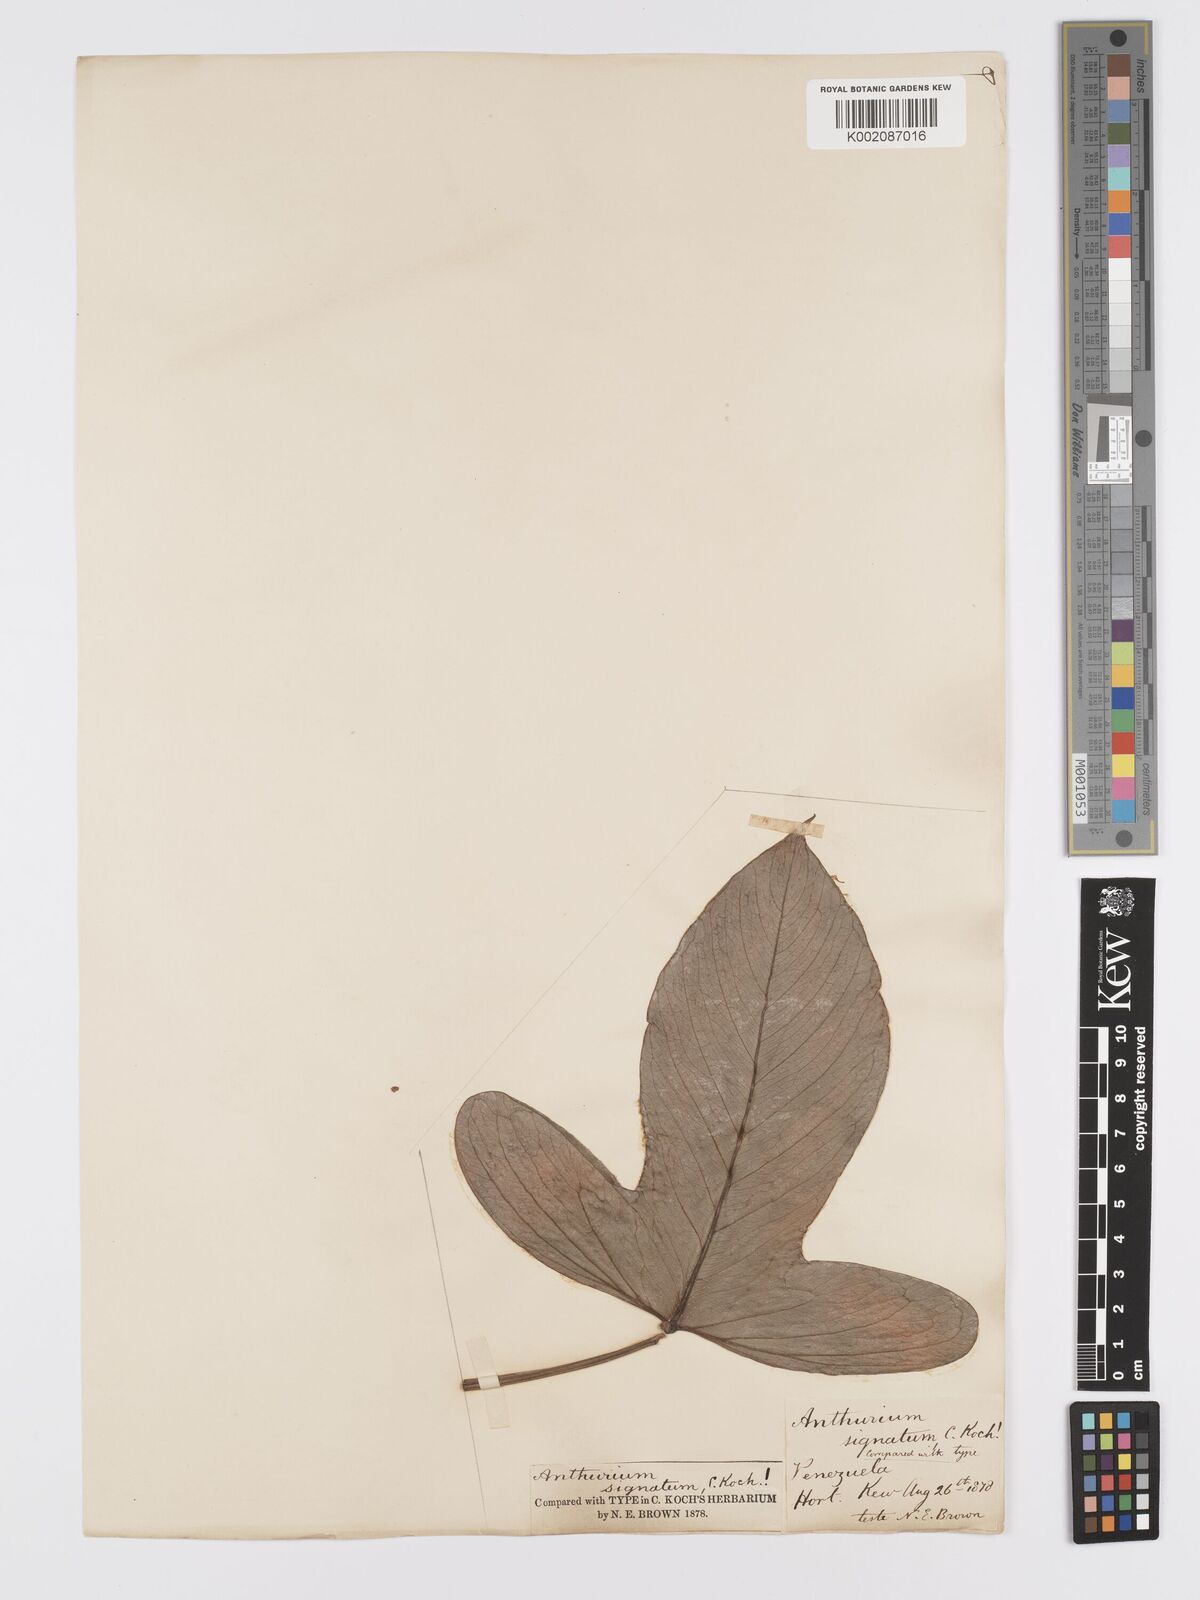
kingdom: Plantae
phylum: Tracheophyta
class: Liliopsida
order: Alismatales
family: Araceae
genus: Anthurium
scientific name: Anthurium signatum
